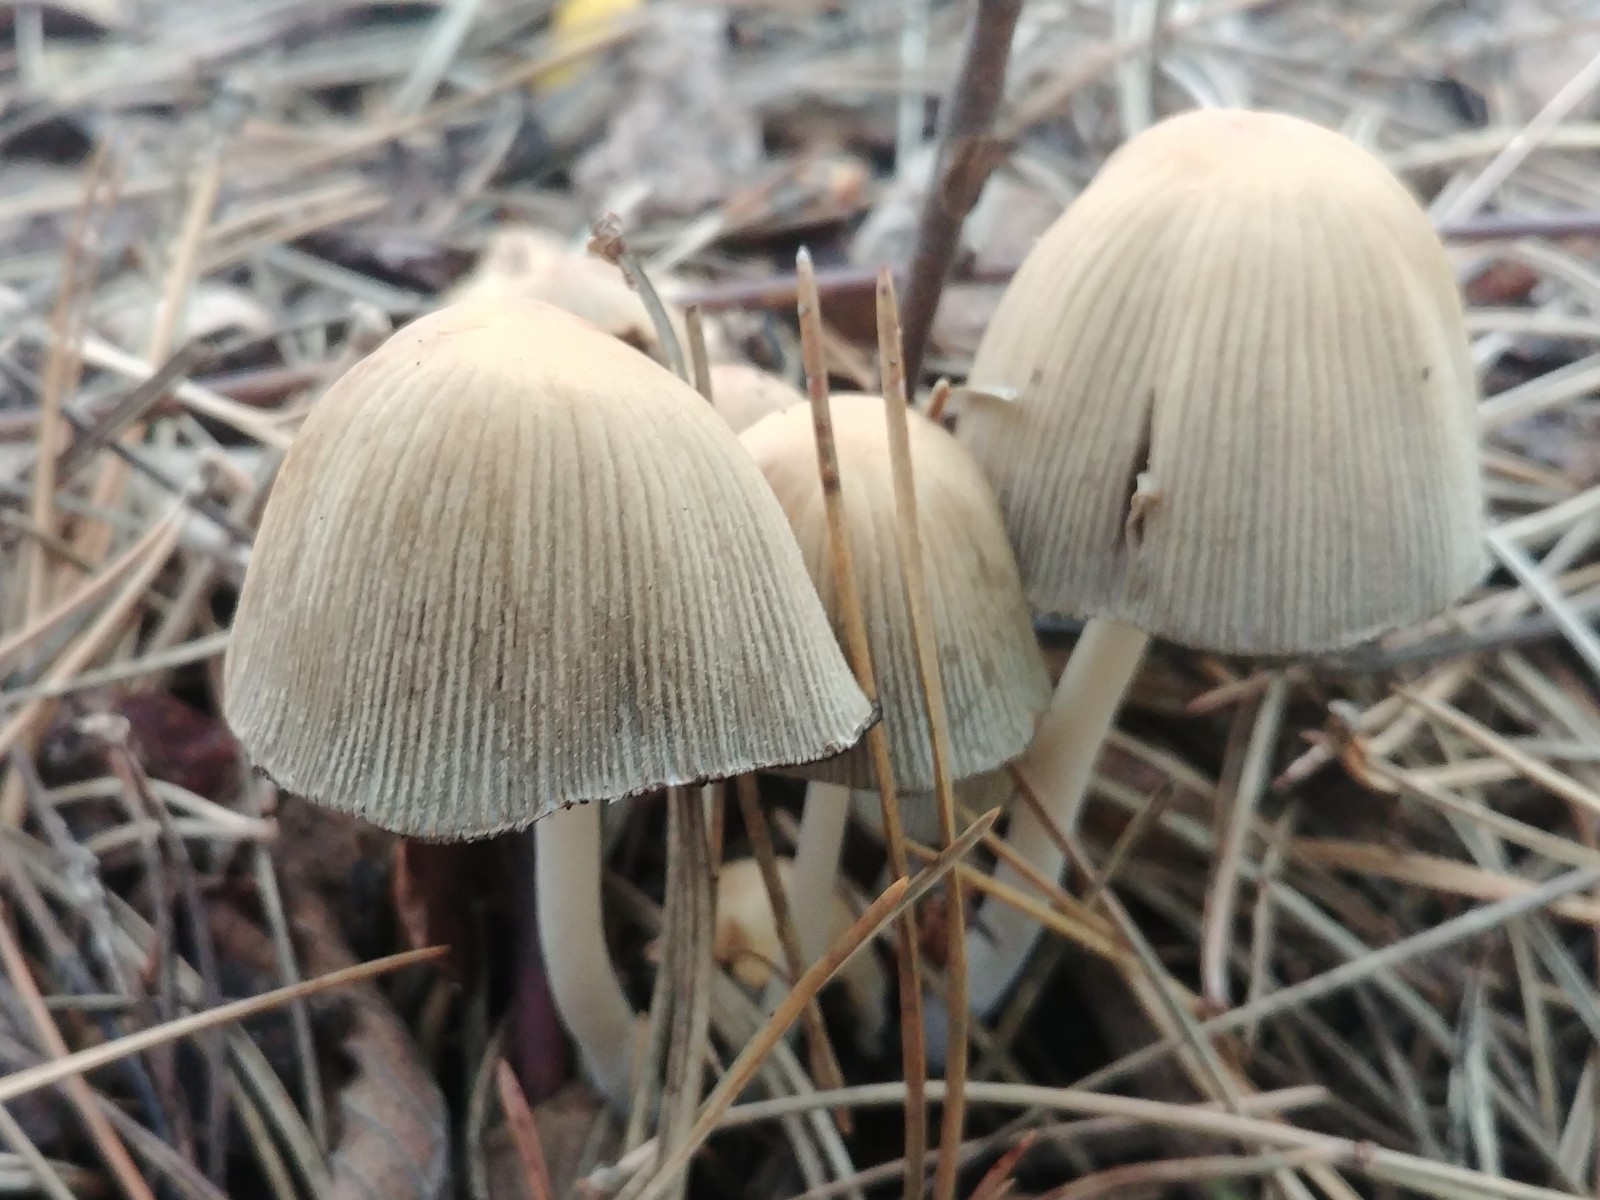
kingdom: Fungi
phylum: Basidiomycota
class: Agaricomycetes
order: Agaricales
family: Psathyrellaceae
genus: Coprinellus
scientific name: Coprinellus micaceus
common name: glimmer-blækhat
